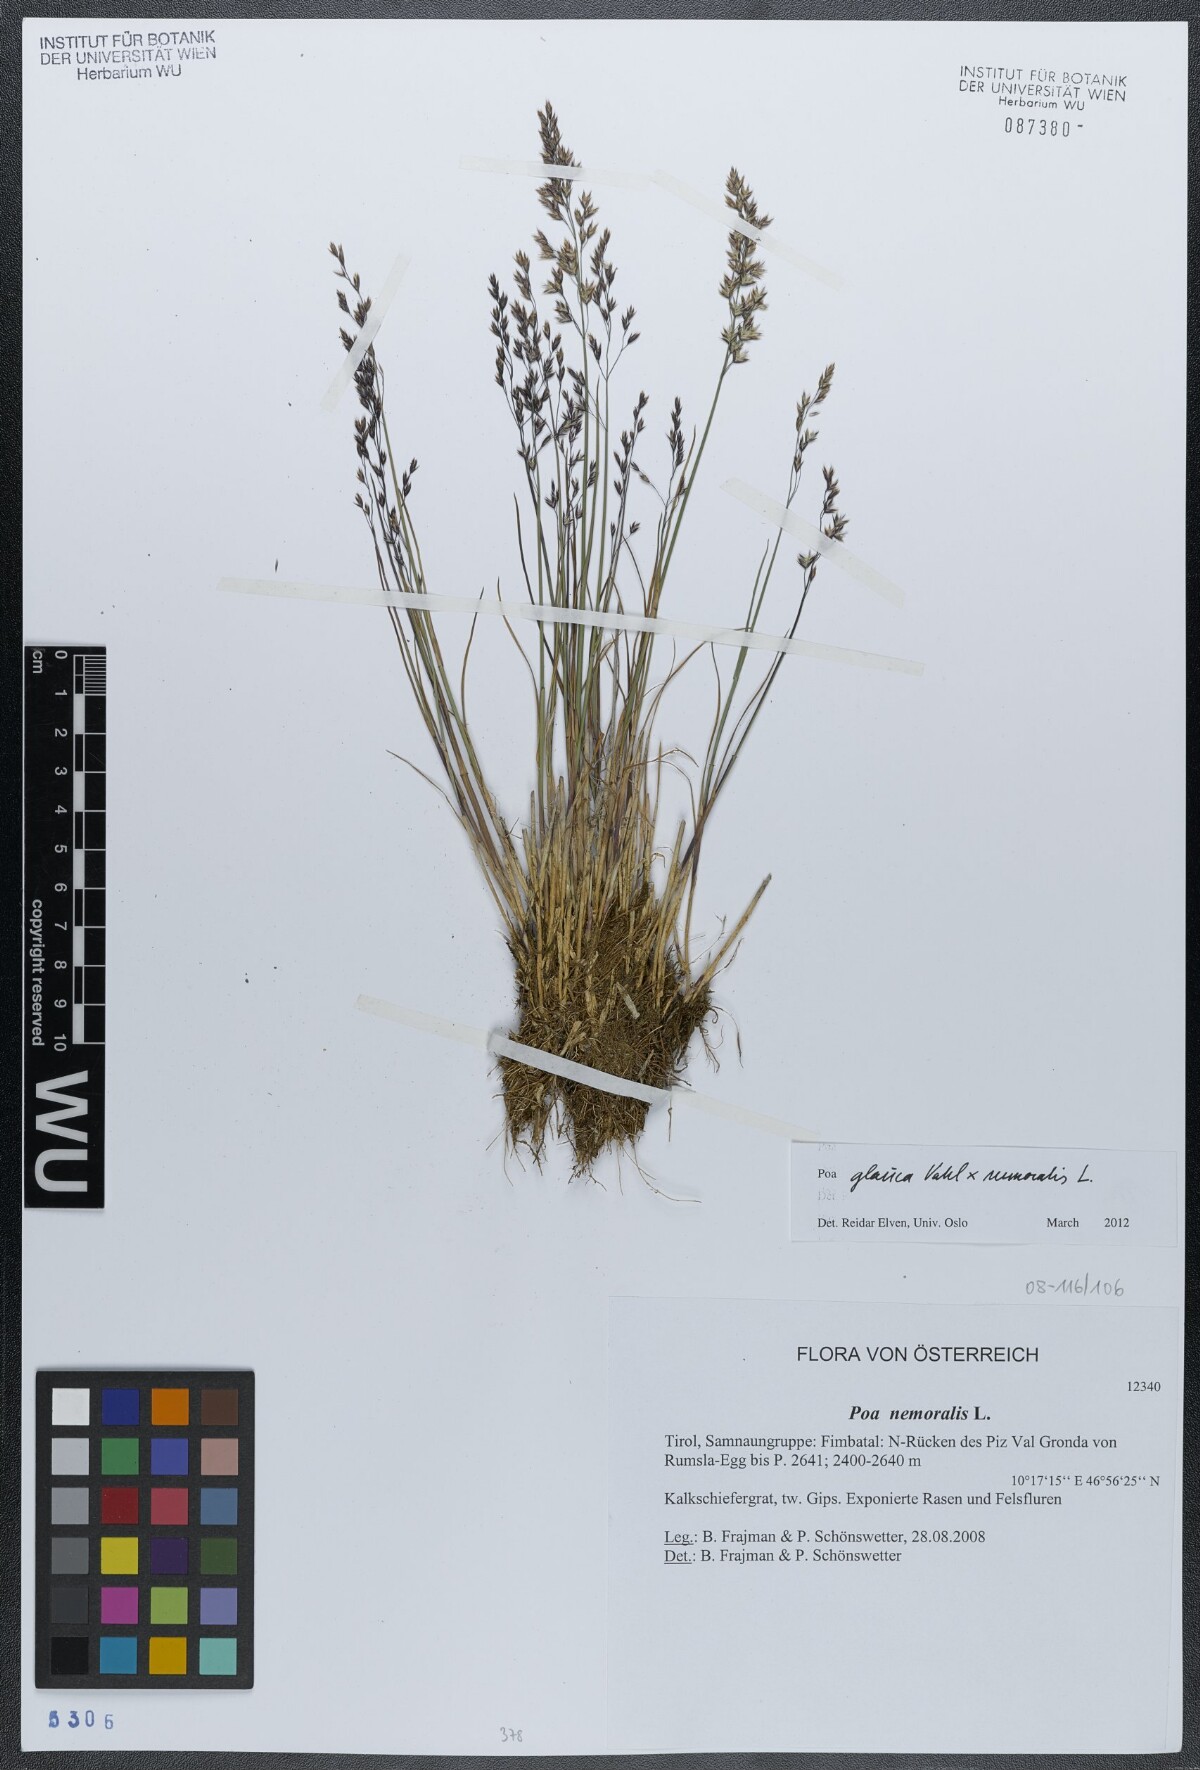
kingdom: Plantae
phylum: Tracheophyta
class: Liliopsida
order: Poales
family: Poaceae
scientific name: Poaceae
